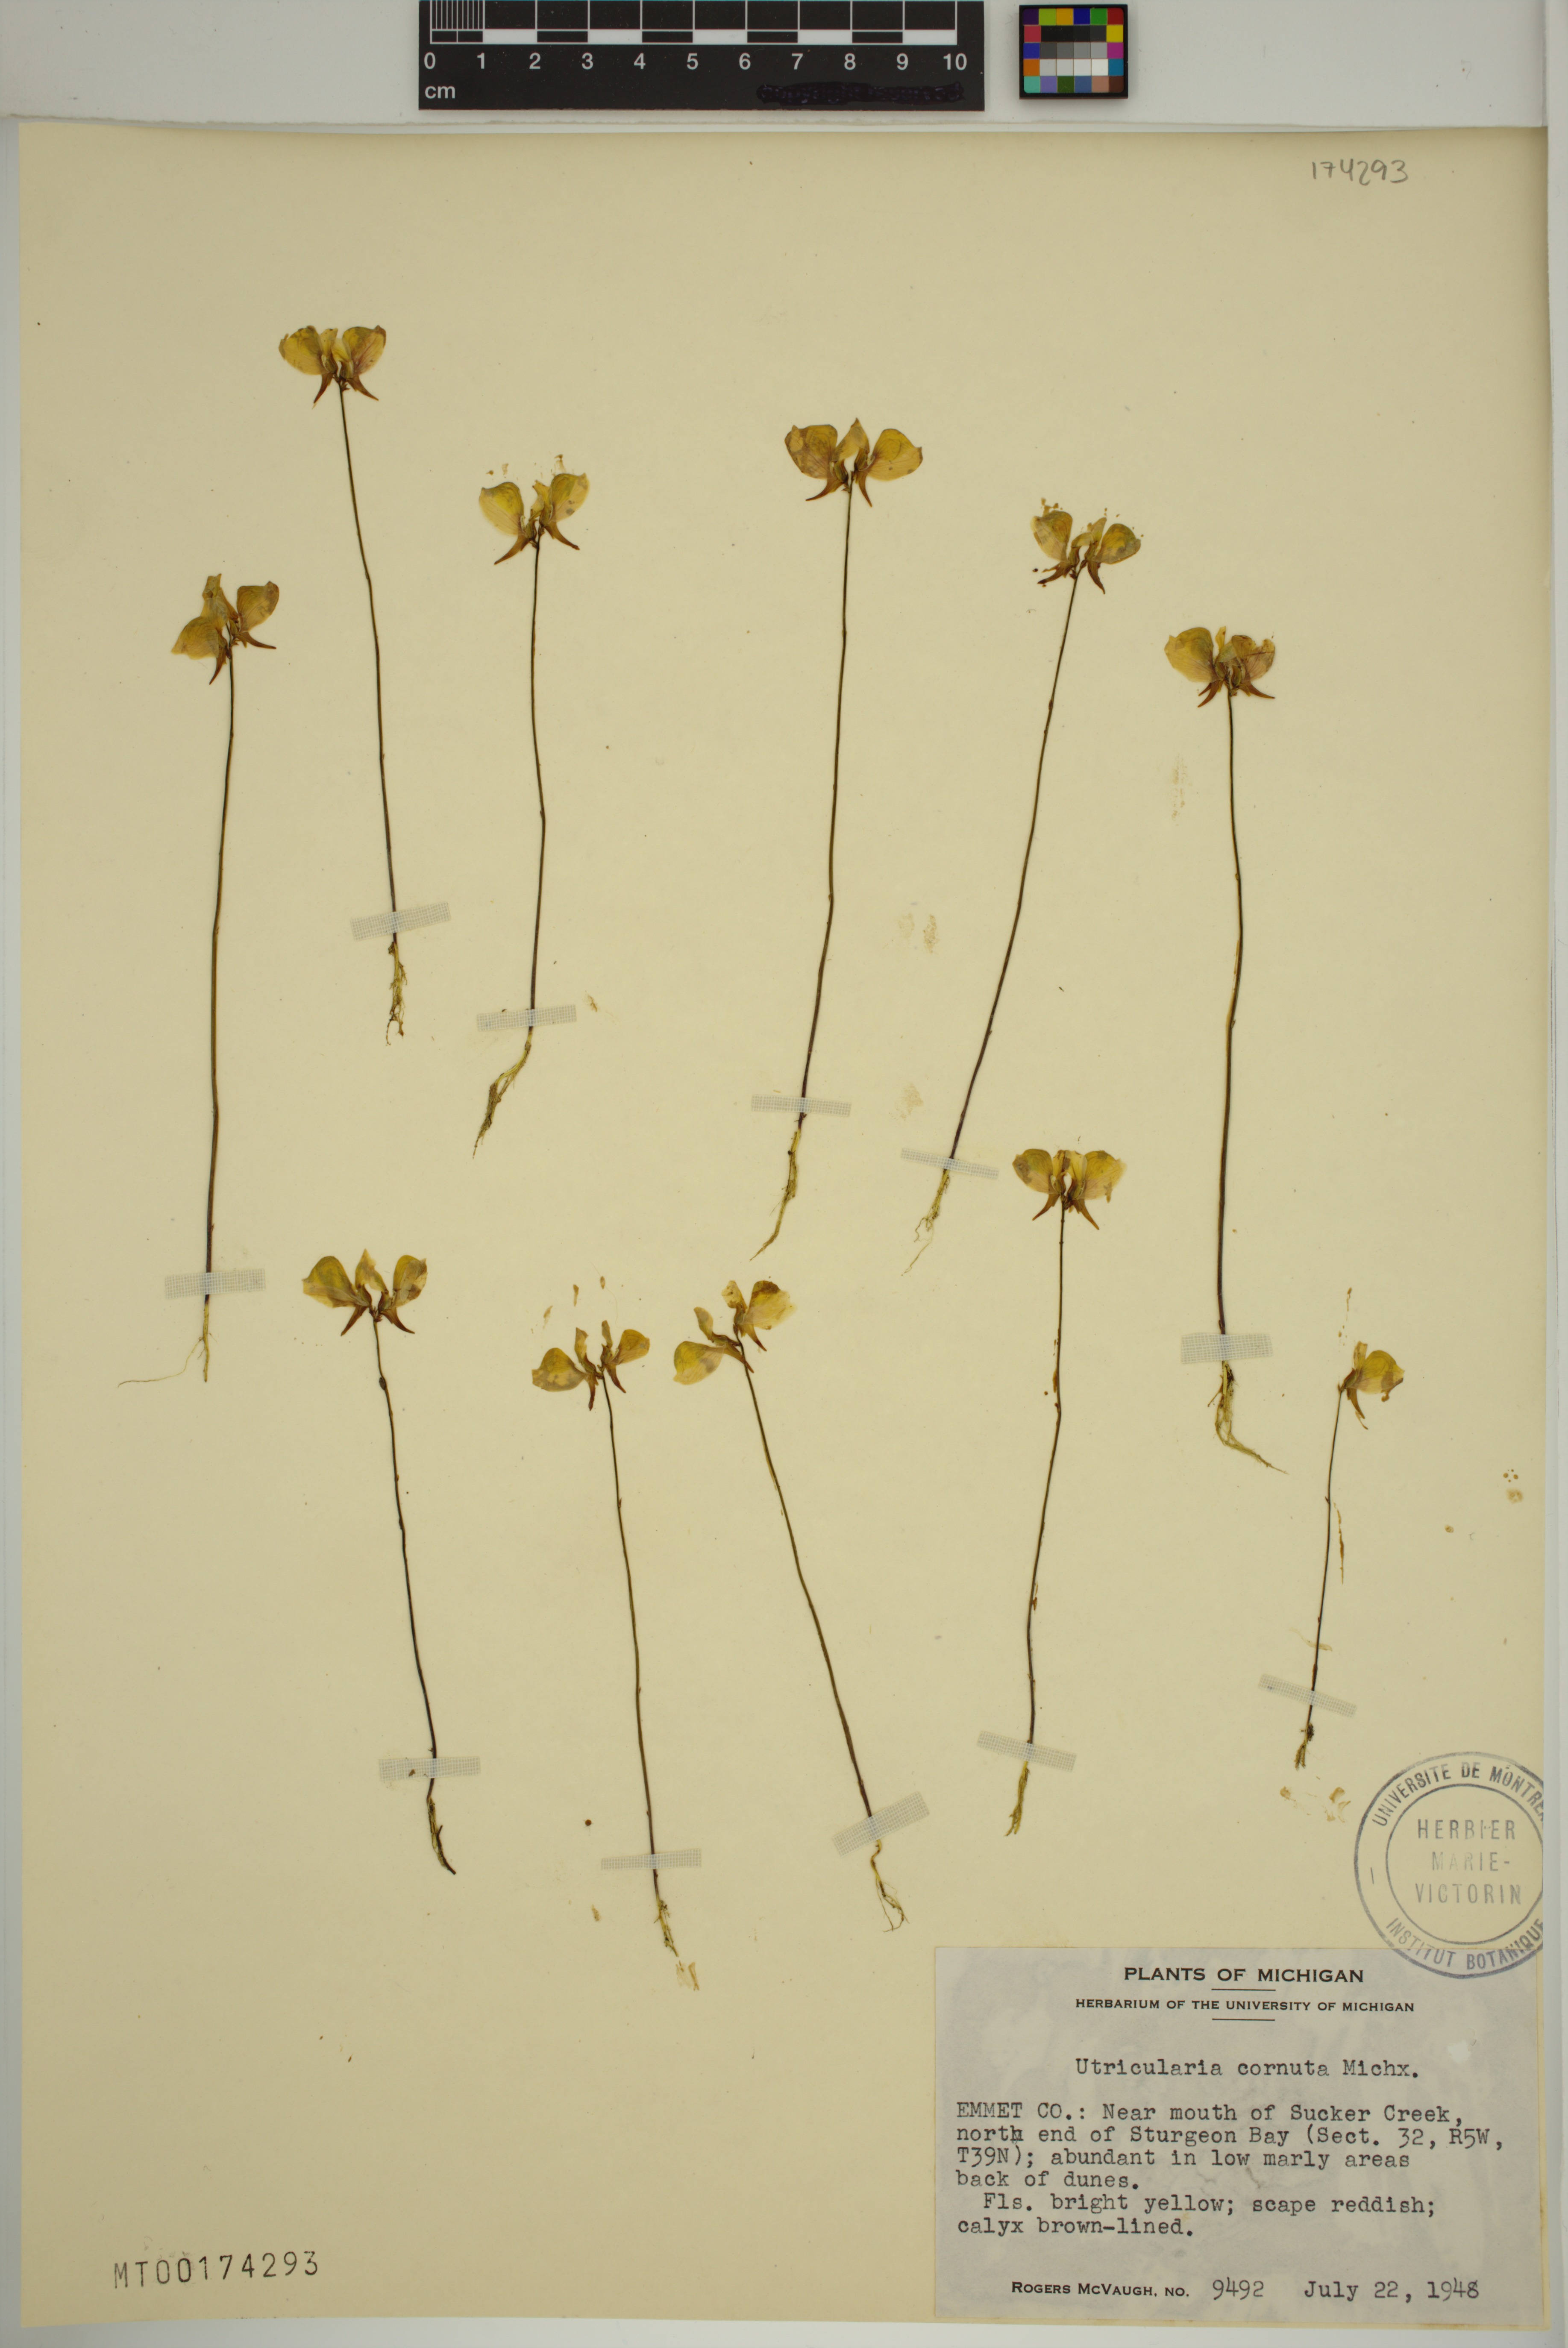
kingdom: Plantae
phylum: Tracheophyta
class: Magnoliopsida
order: Lamiales
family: Lentibulariaceae
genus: Utricularia
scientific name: Utricularia cornuta
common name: Horned bladderwort
